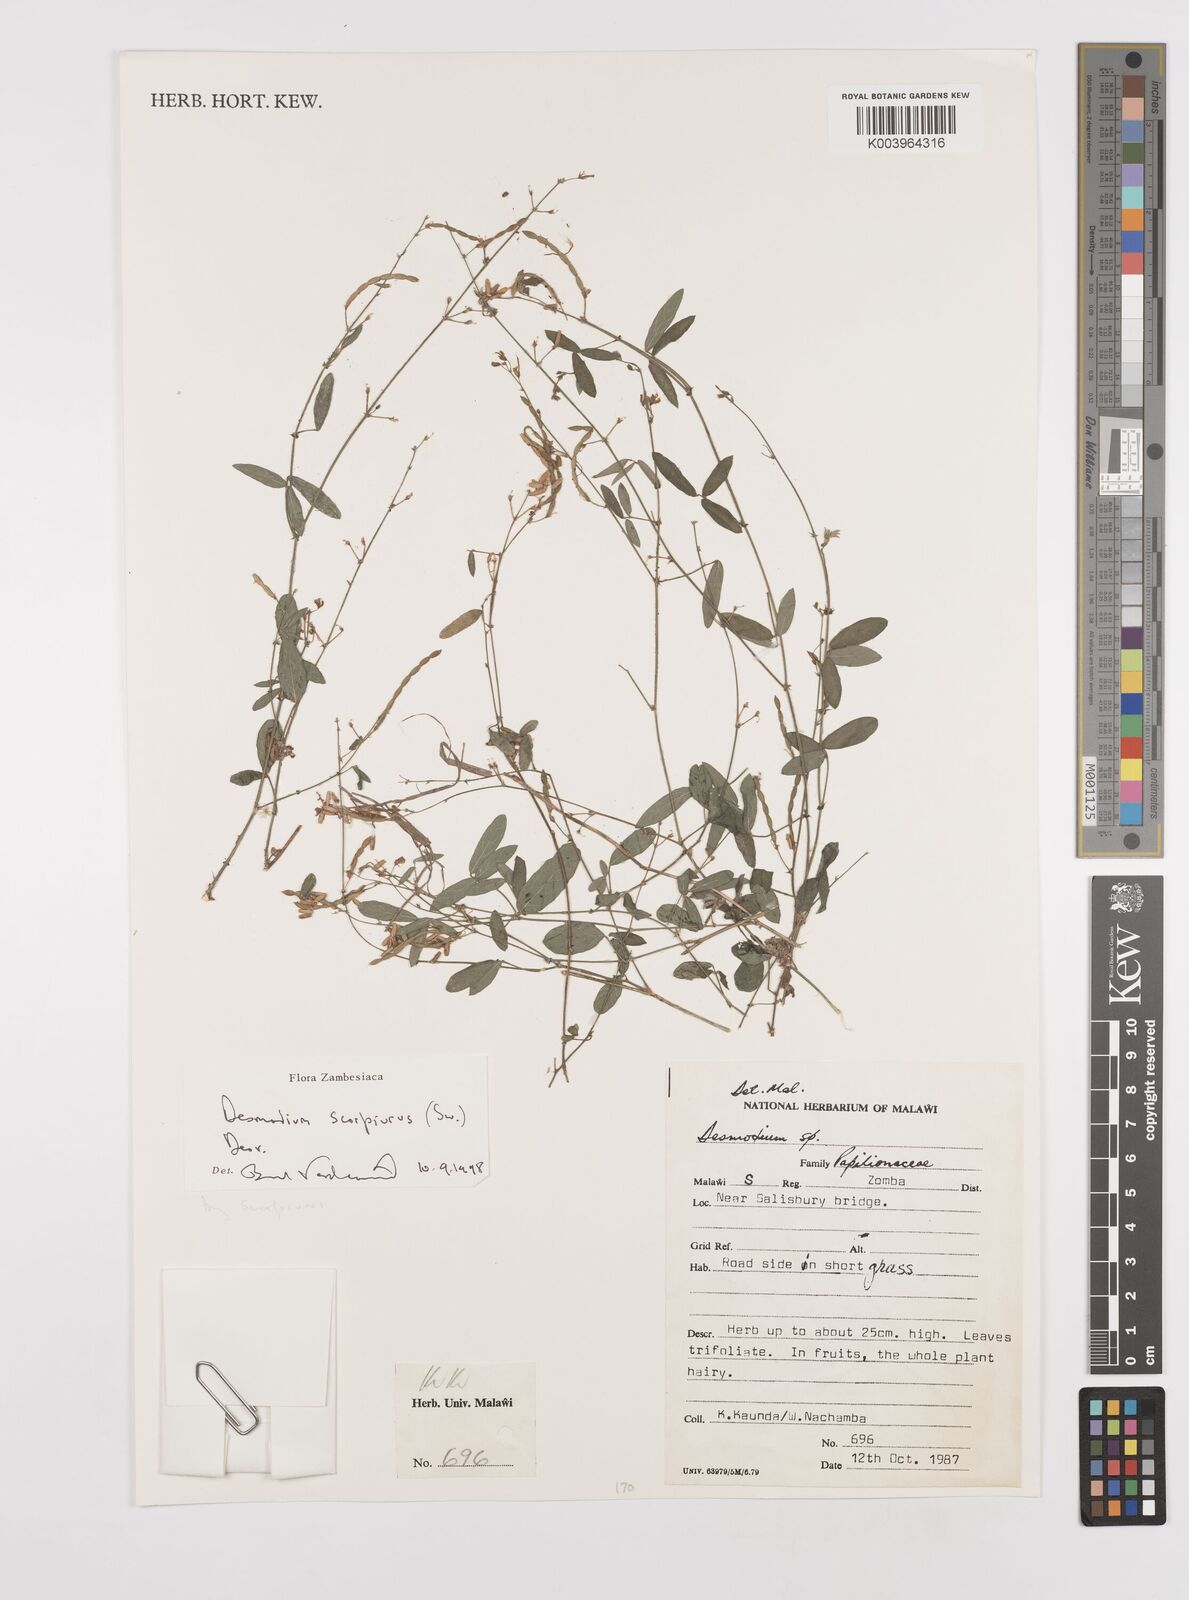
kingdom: Plantae
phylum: Tracheophyta
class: Magnoliopsida
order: Fabales
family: Fabaceae
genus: Desmodium
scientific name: Desmodium scorpiurus
